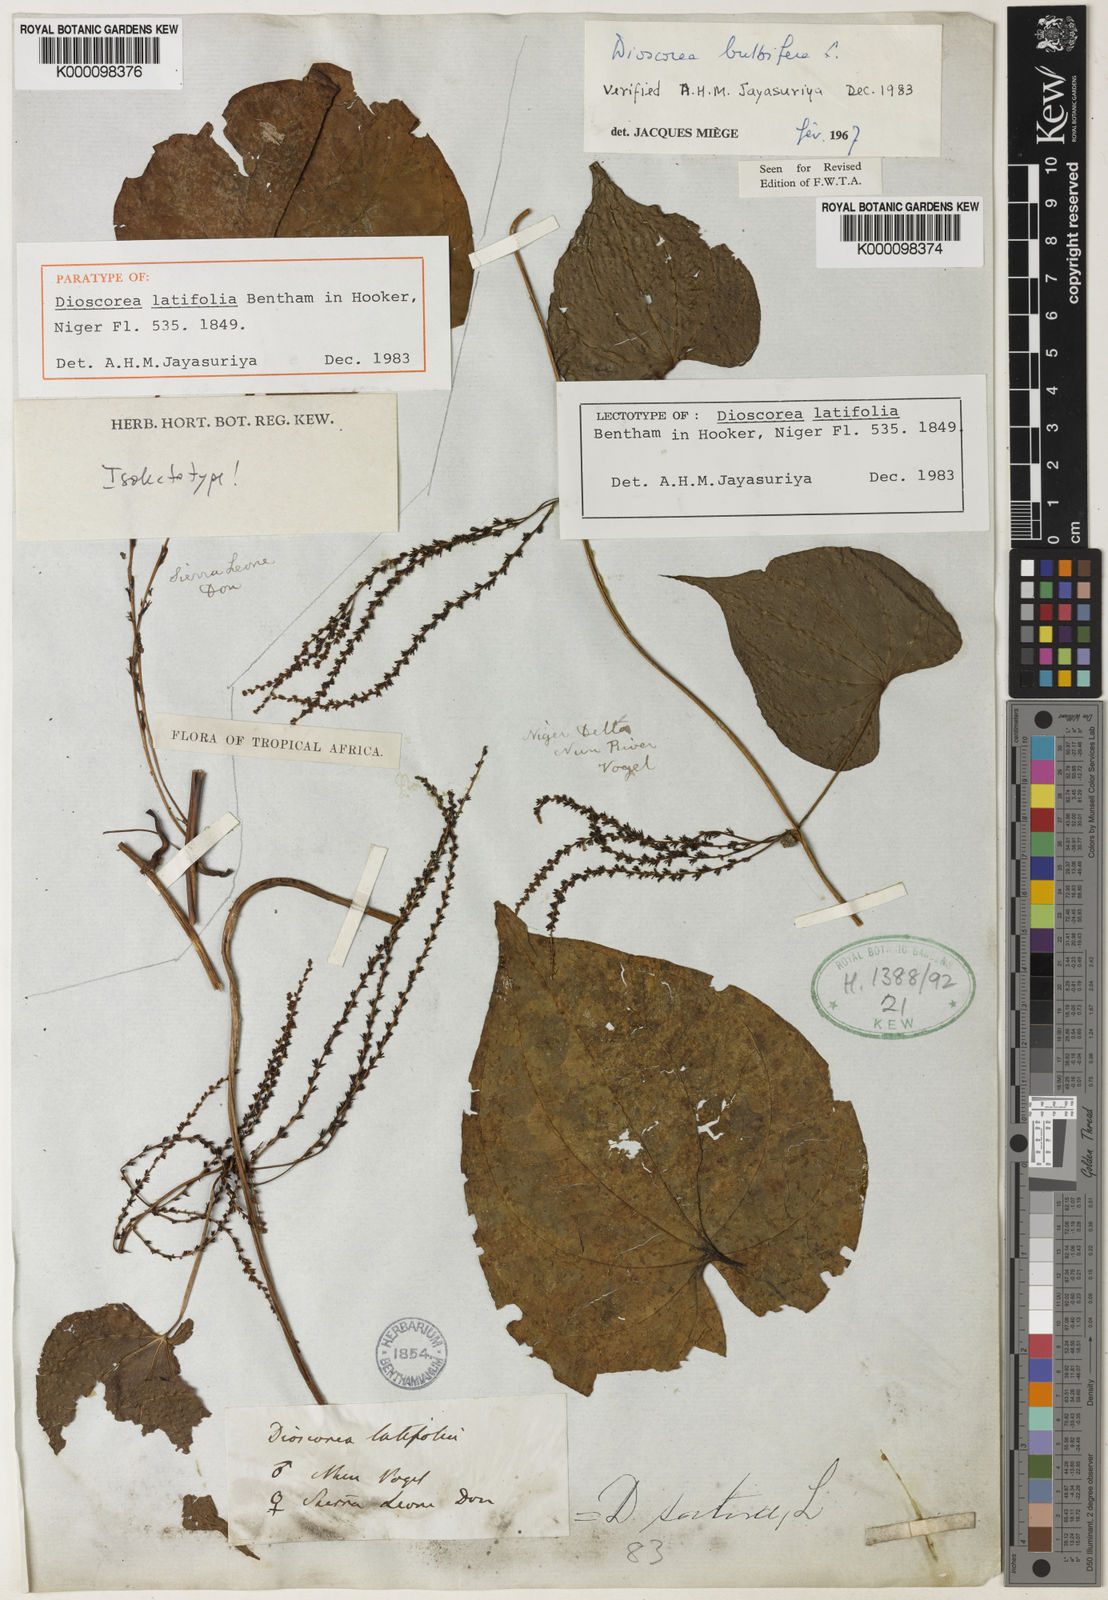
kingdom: Plantae
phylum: Tracheophyta
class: Liliopsida
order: Dioscoreales
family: Dioscoreaceae
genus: Dioscorea
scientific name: Dioscorea bulbifera
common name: Air yam
